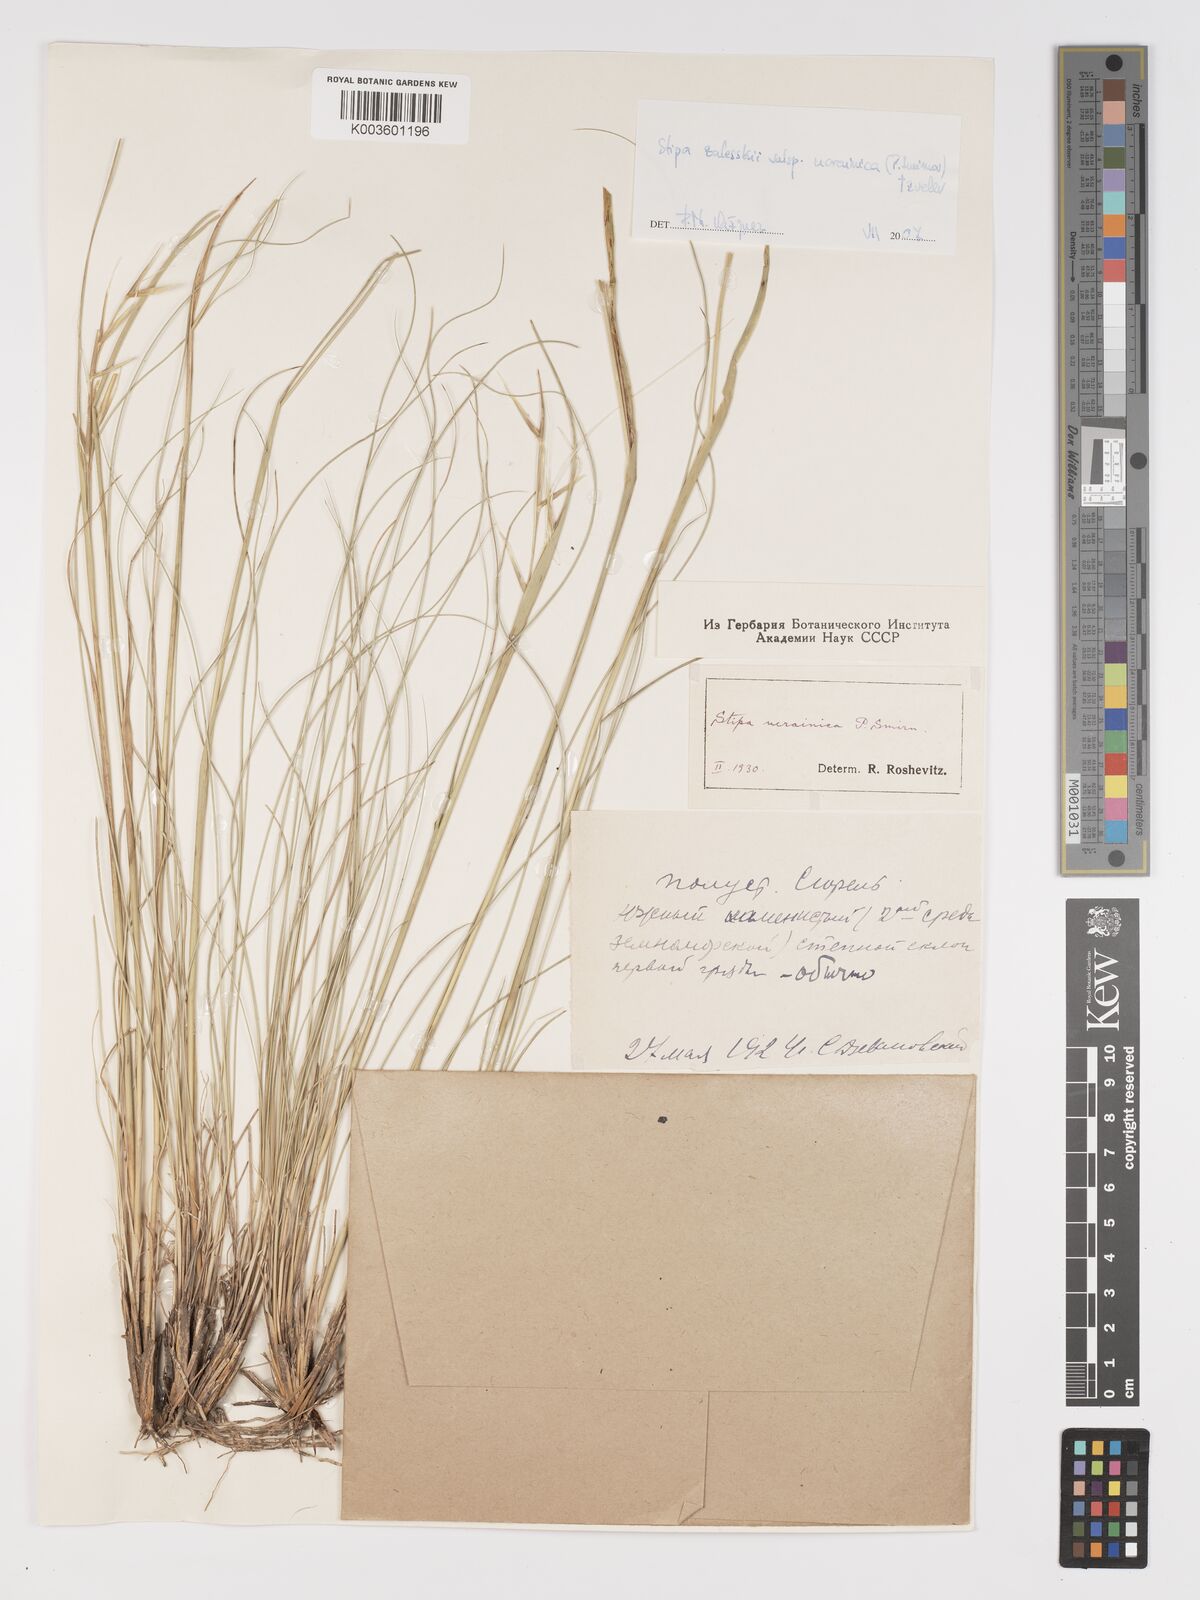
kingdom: Plantae
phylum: Tracheophyta
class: Liliopsida
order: Poales
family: Poaceae
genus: Stipa
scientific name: Stipa
